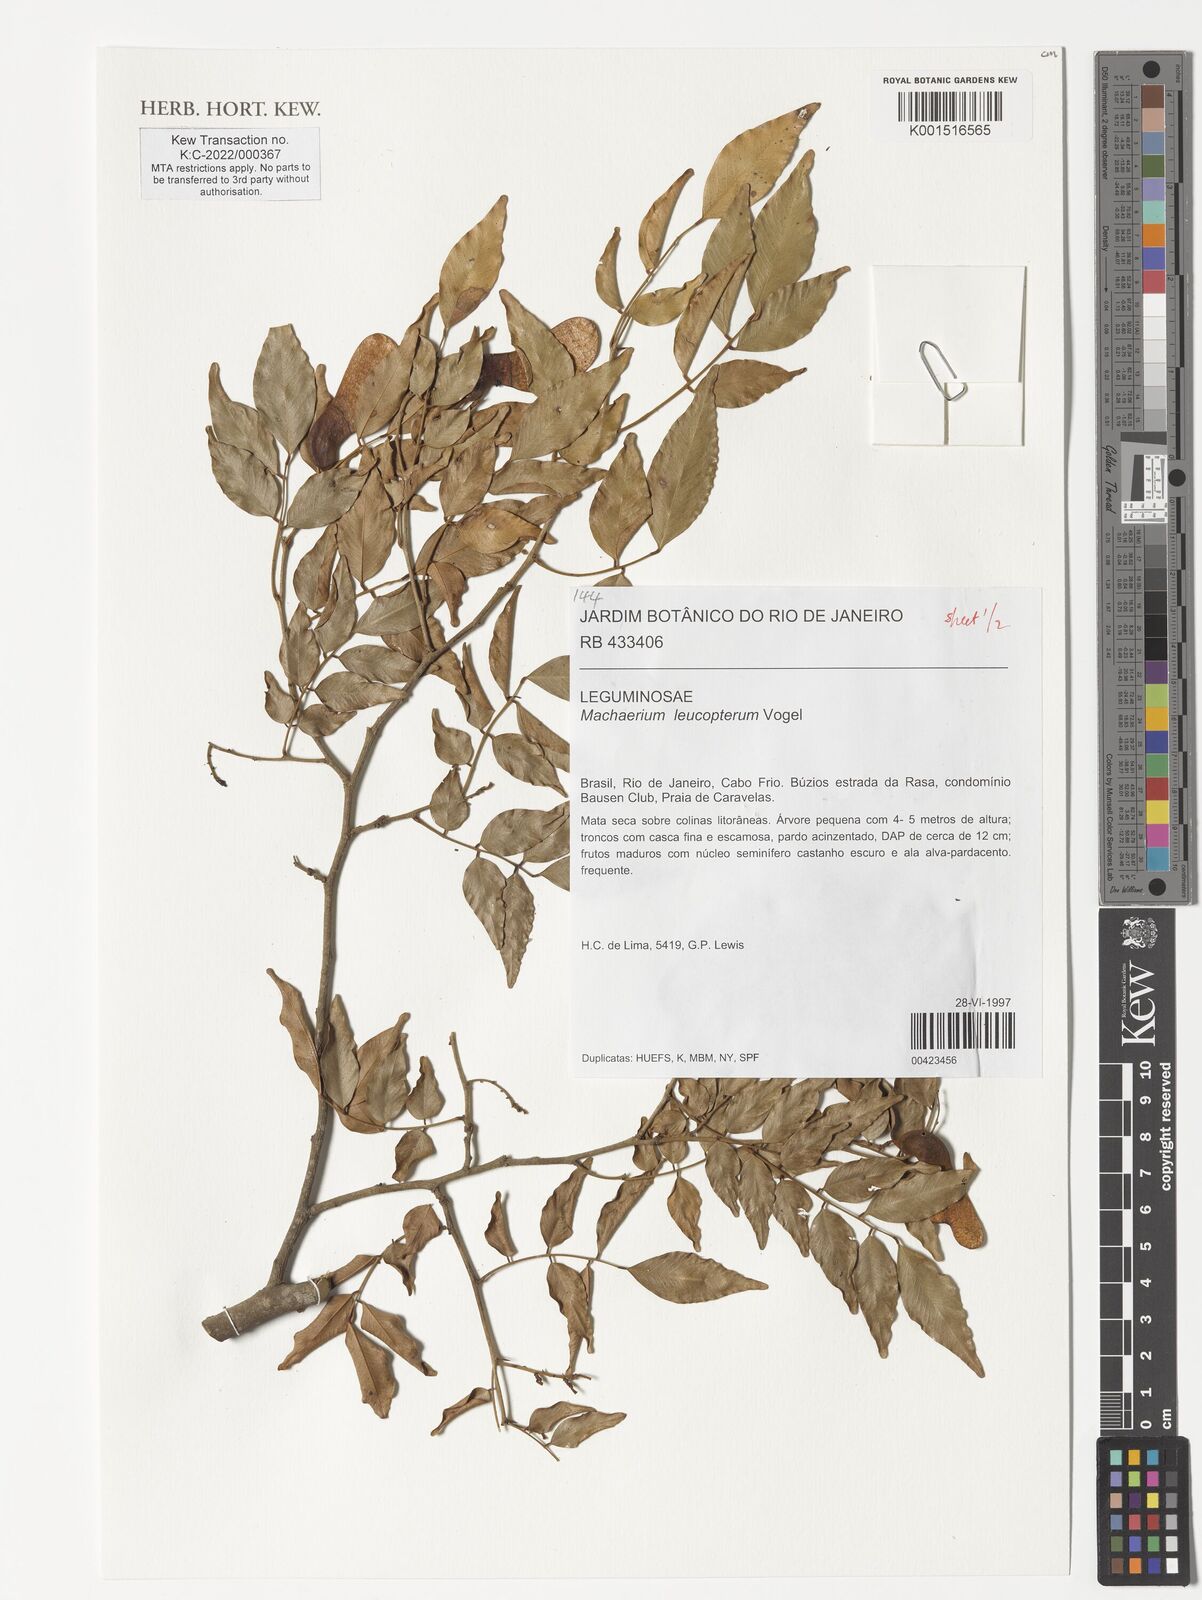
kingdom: Plantae
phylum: Tracheophyta
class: Magnoliopsida
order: Fabales
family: Fabaceae
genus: Machaerium
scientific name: Machaerium leucopterum
